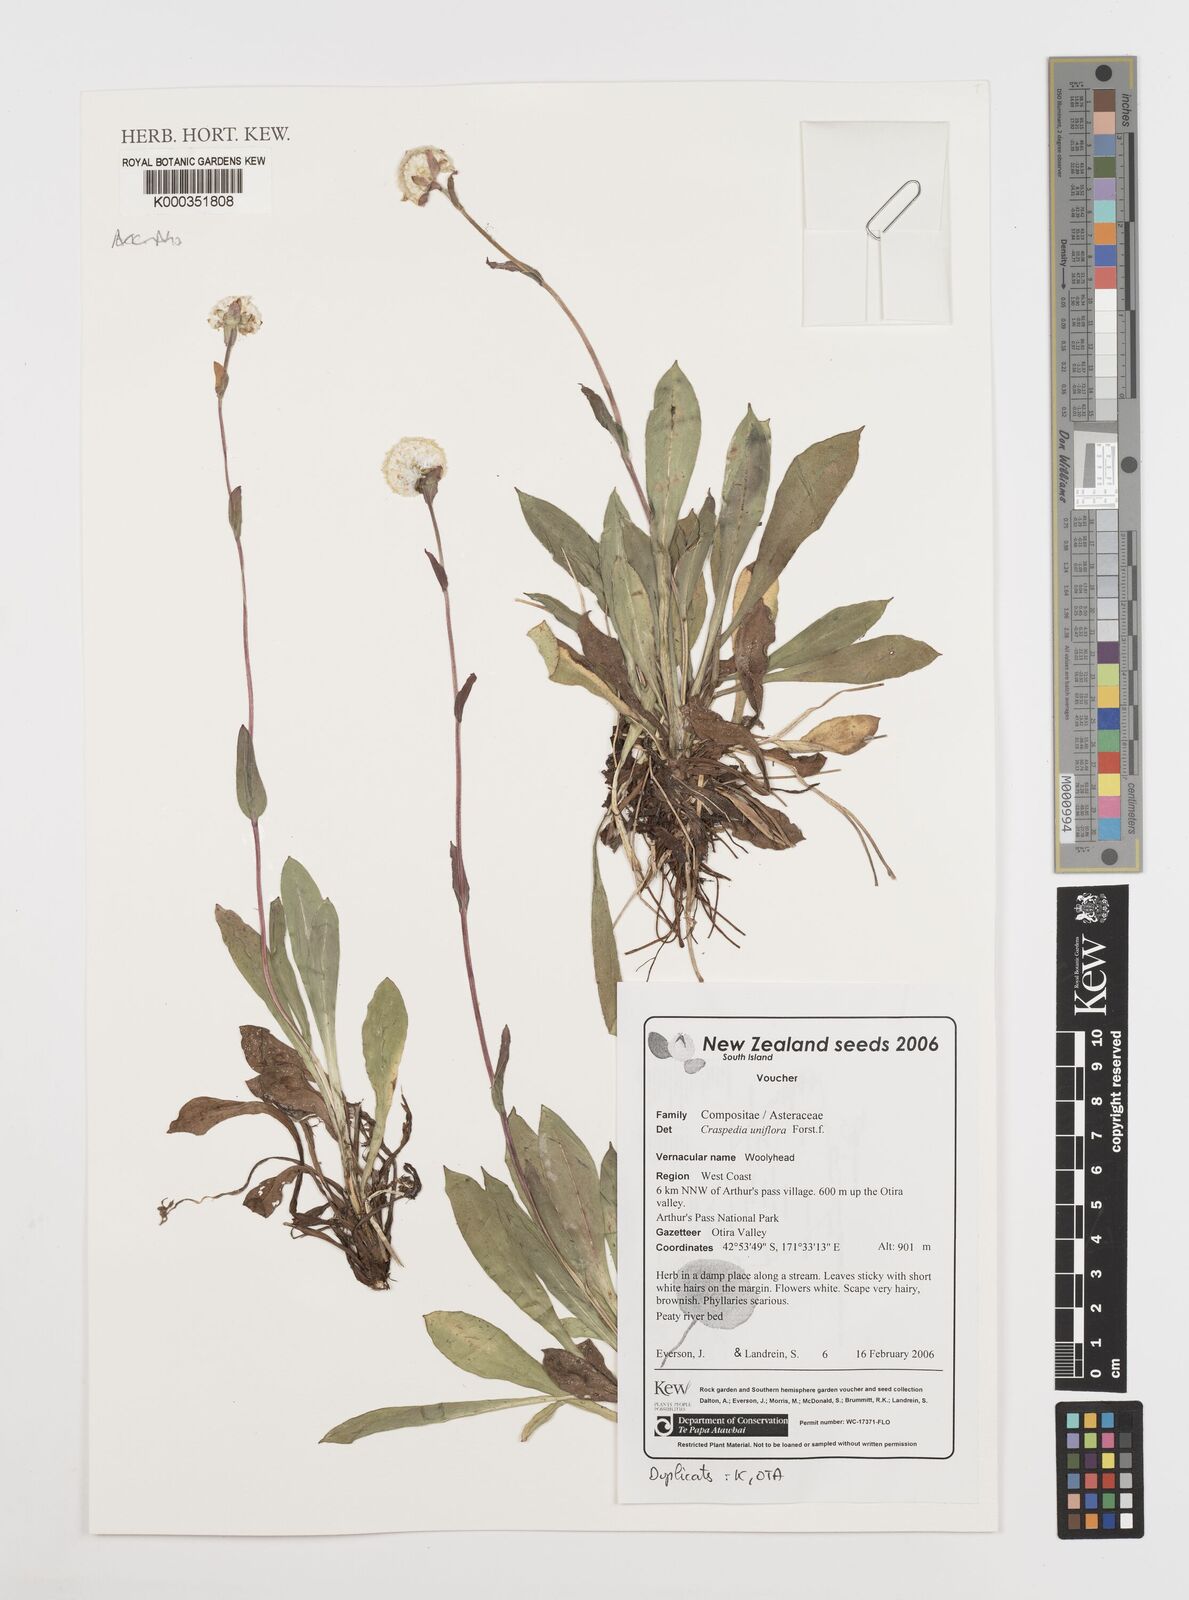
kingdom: Plantae
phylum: Tracheophyta
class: Magnoliopsida
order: Asterales
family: Asteraceae
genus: Craspedia
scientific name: Craspedia uniflora
